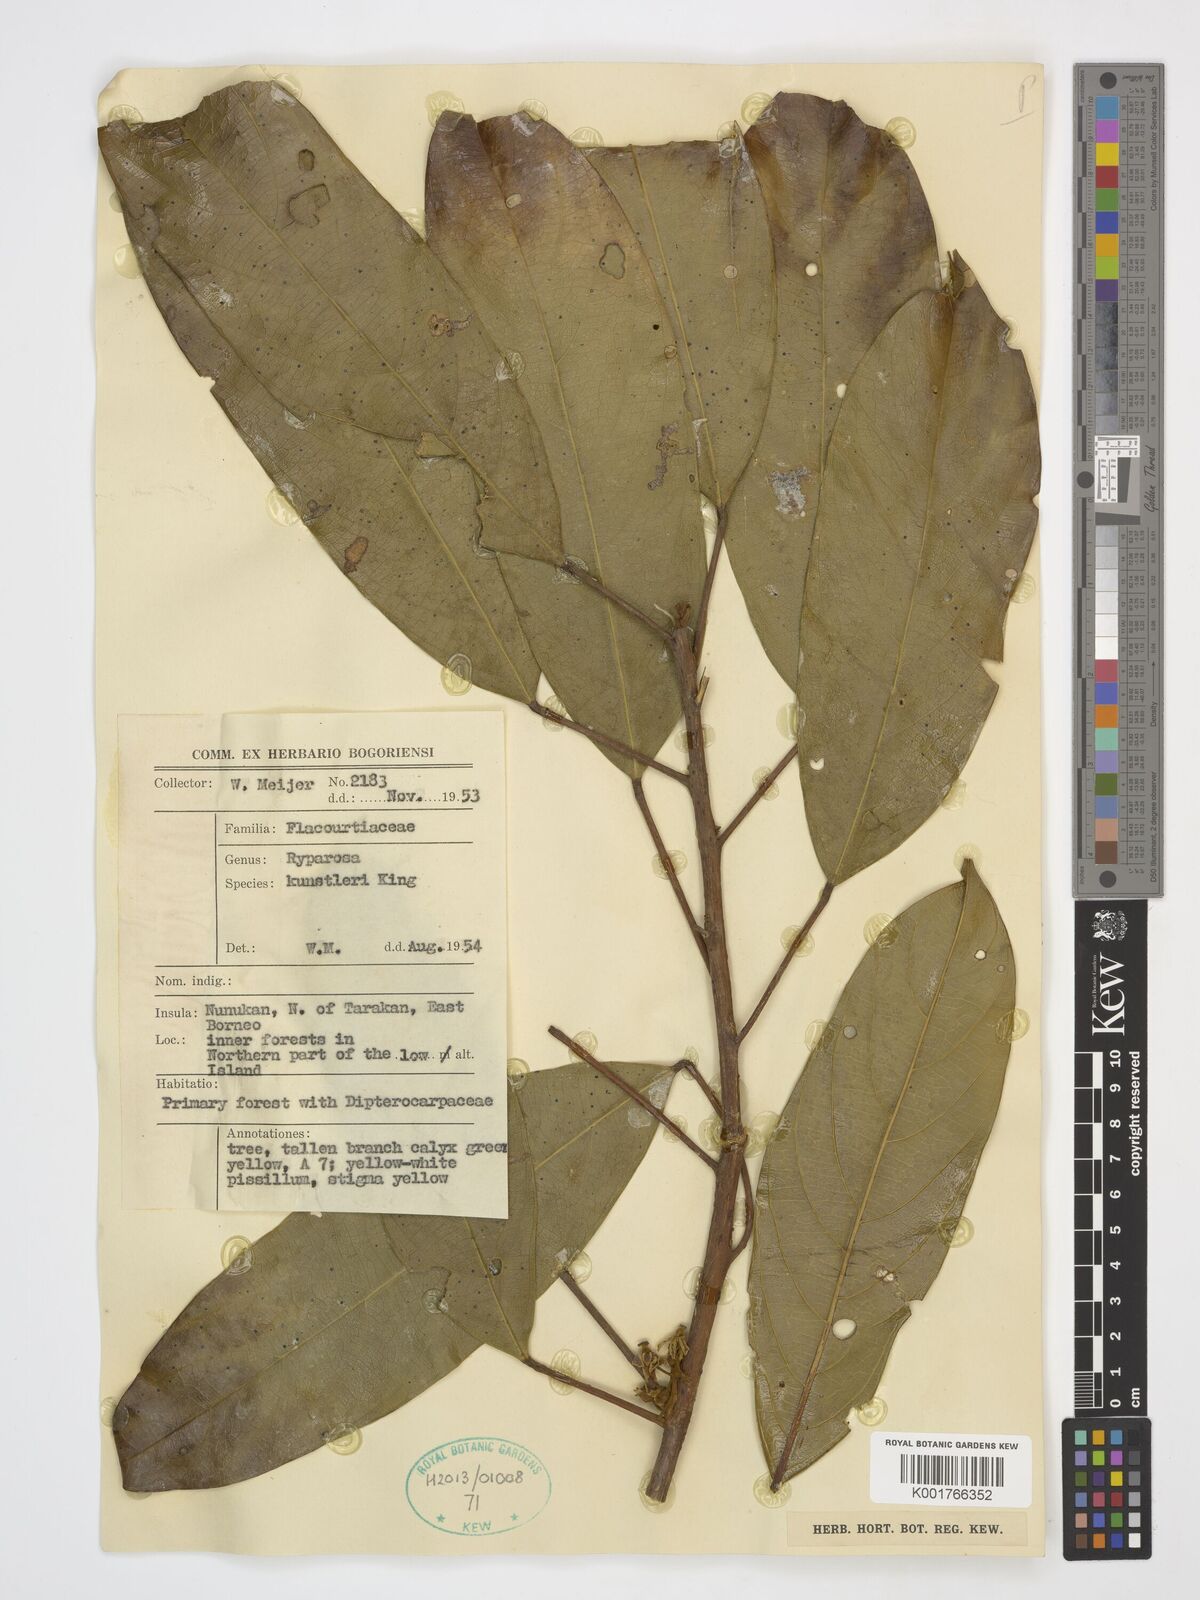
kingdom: Plantae
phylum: Tracheophyta
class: Magnoliopsida
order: Malpighiales
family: Achariaceae
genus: Ryparosa
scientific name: Ryparosa kunstleri
